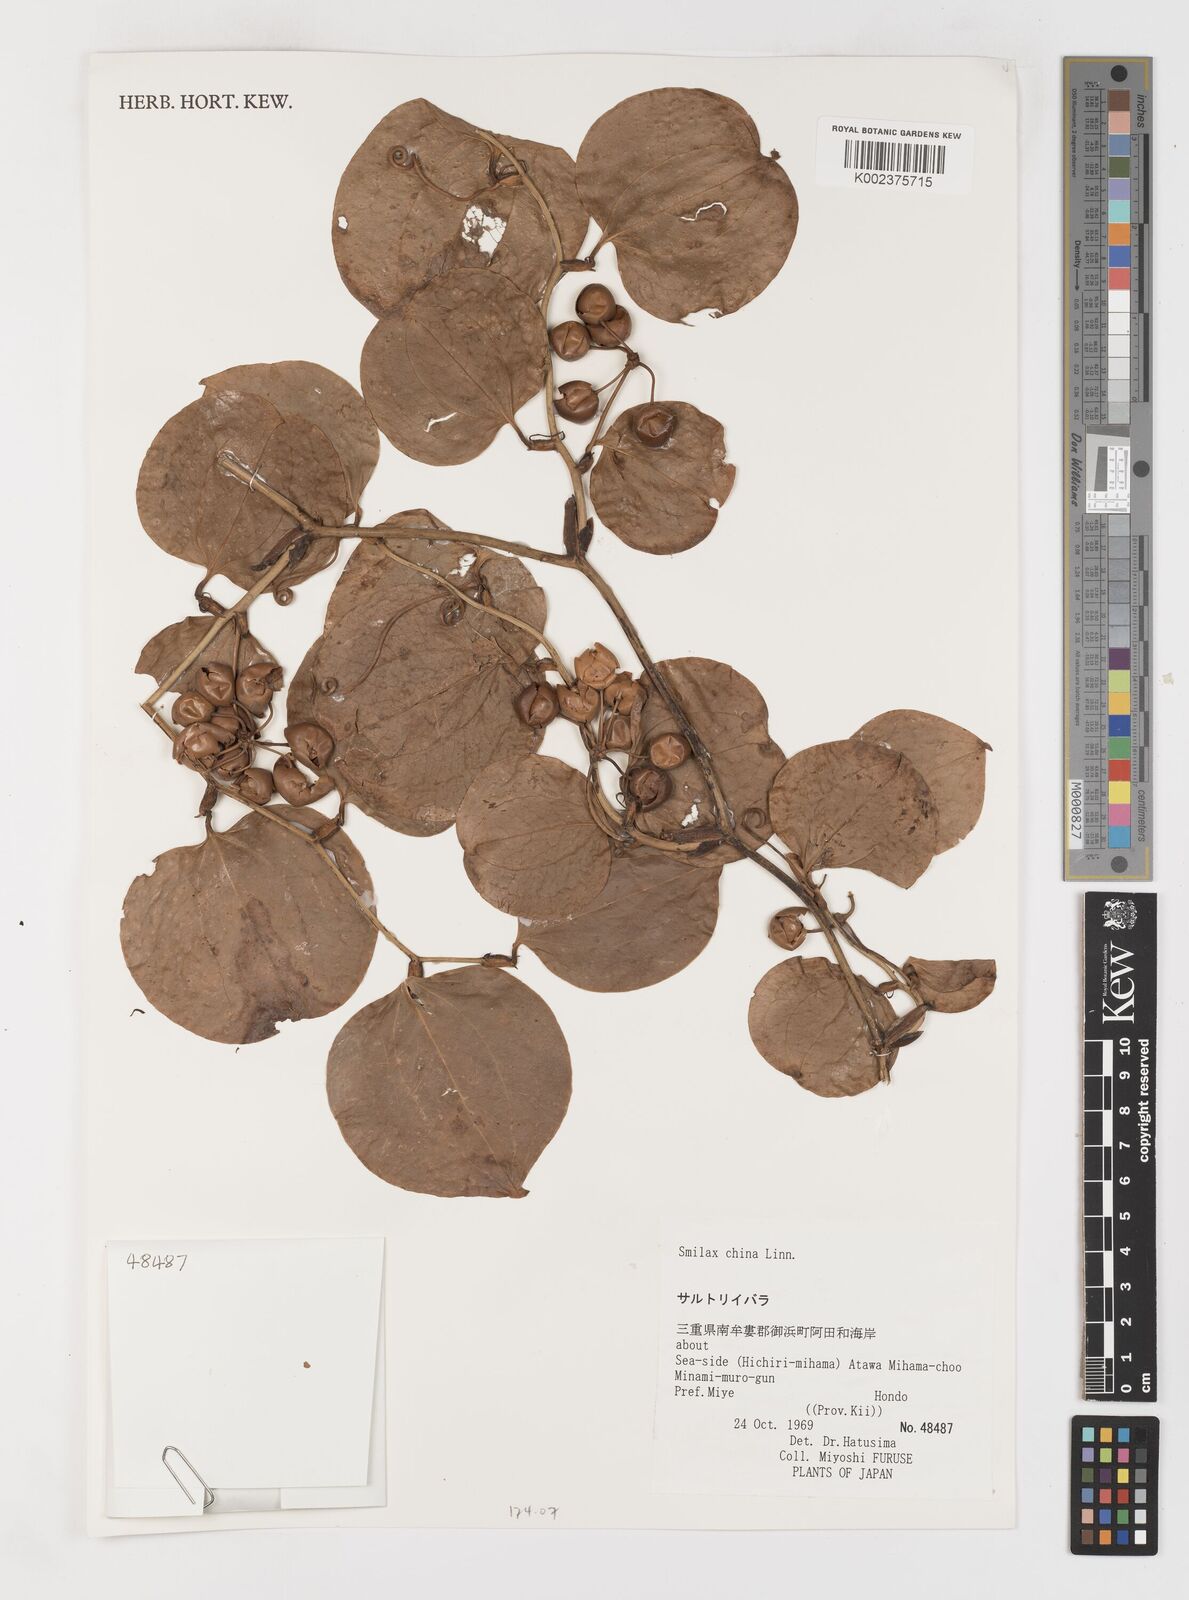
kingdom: Plantae
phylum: Tracheophyta
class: Liliopsida
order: Liliales
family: Smilacaceae
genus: Smilax
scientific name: Smilax china
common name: Chinaroot
